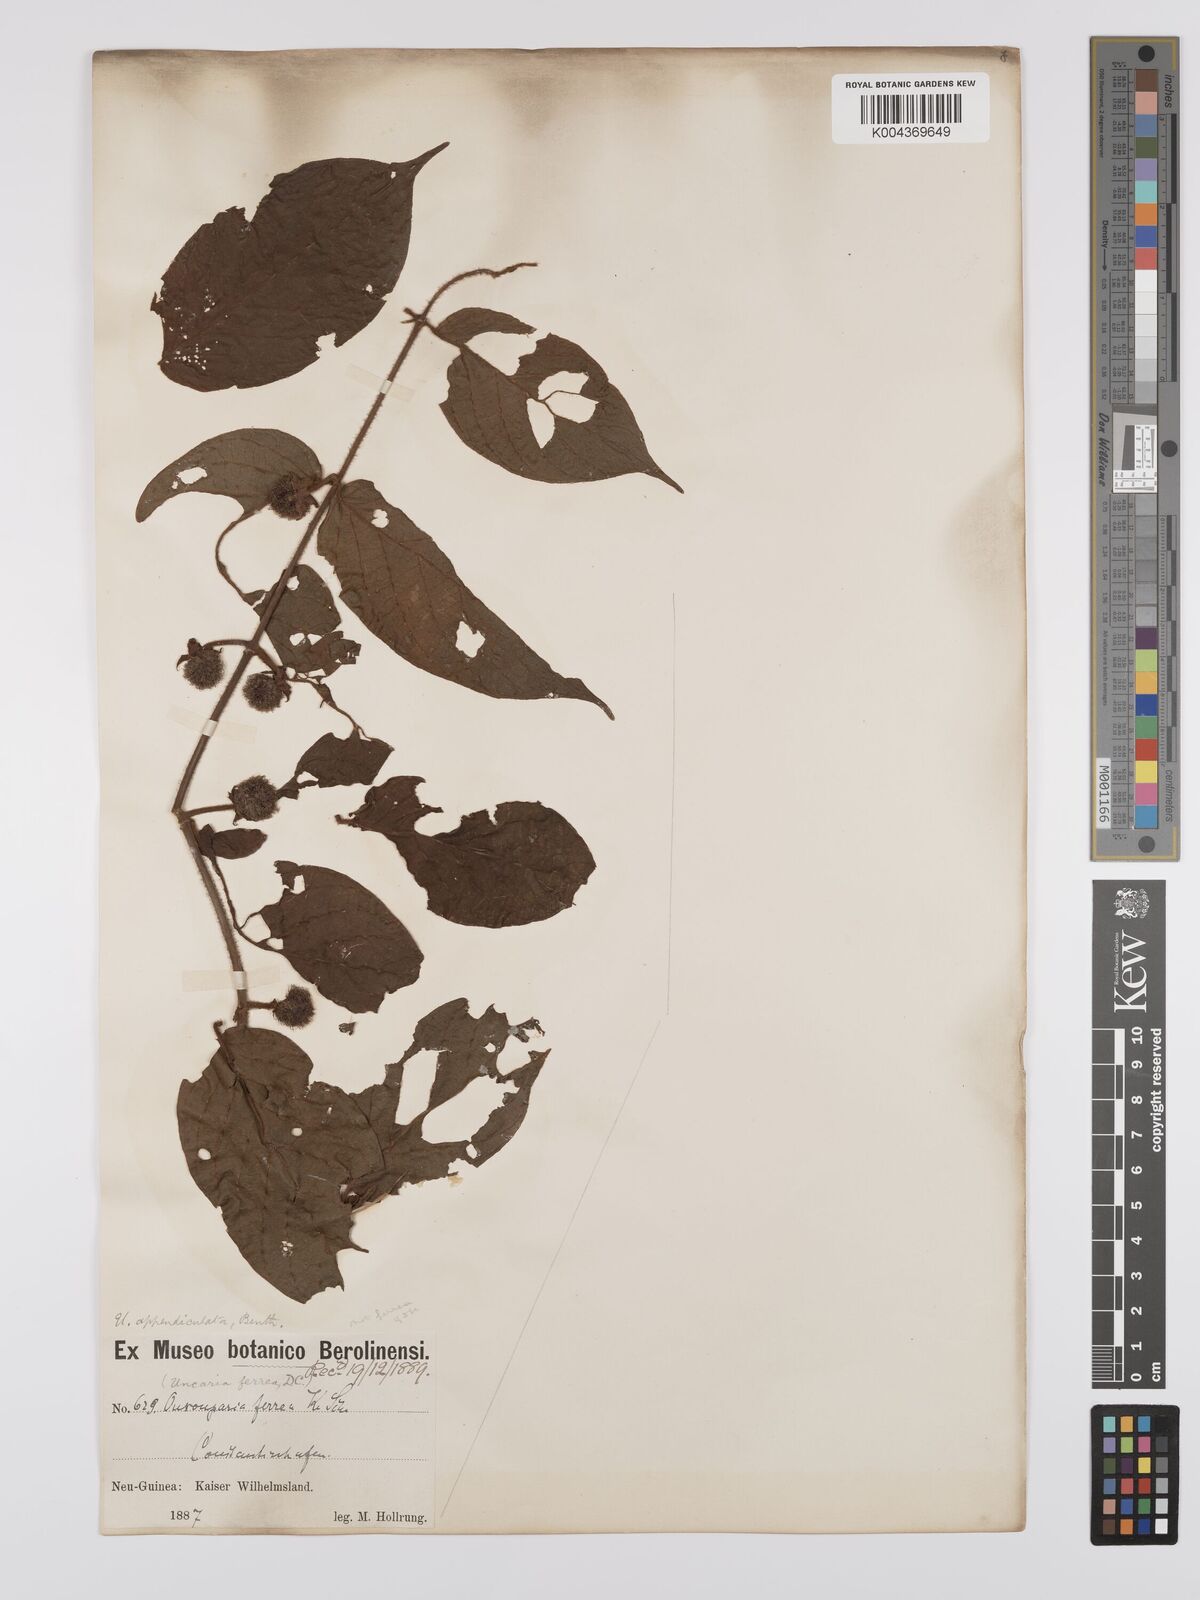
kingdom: Plantae
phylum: Tracheophyta
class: Magnoliopsida
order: Gentianales
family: Rubiaceae
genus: Uncaria
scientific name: Uncaria lanosa
